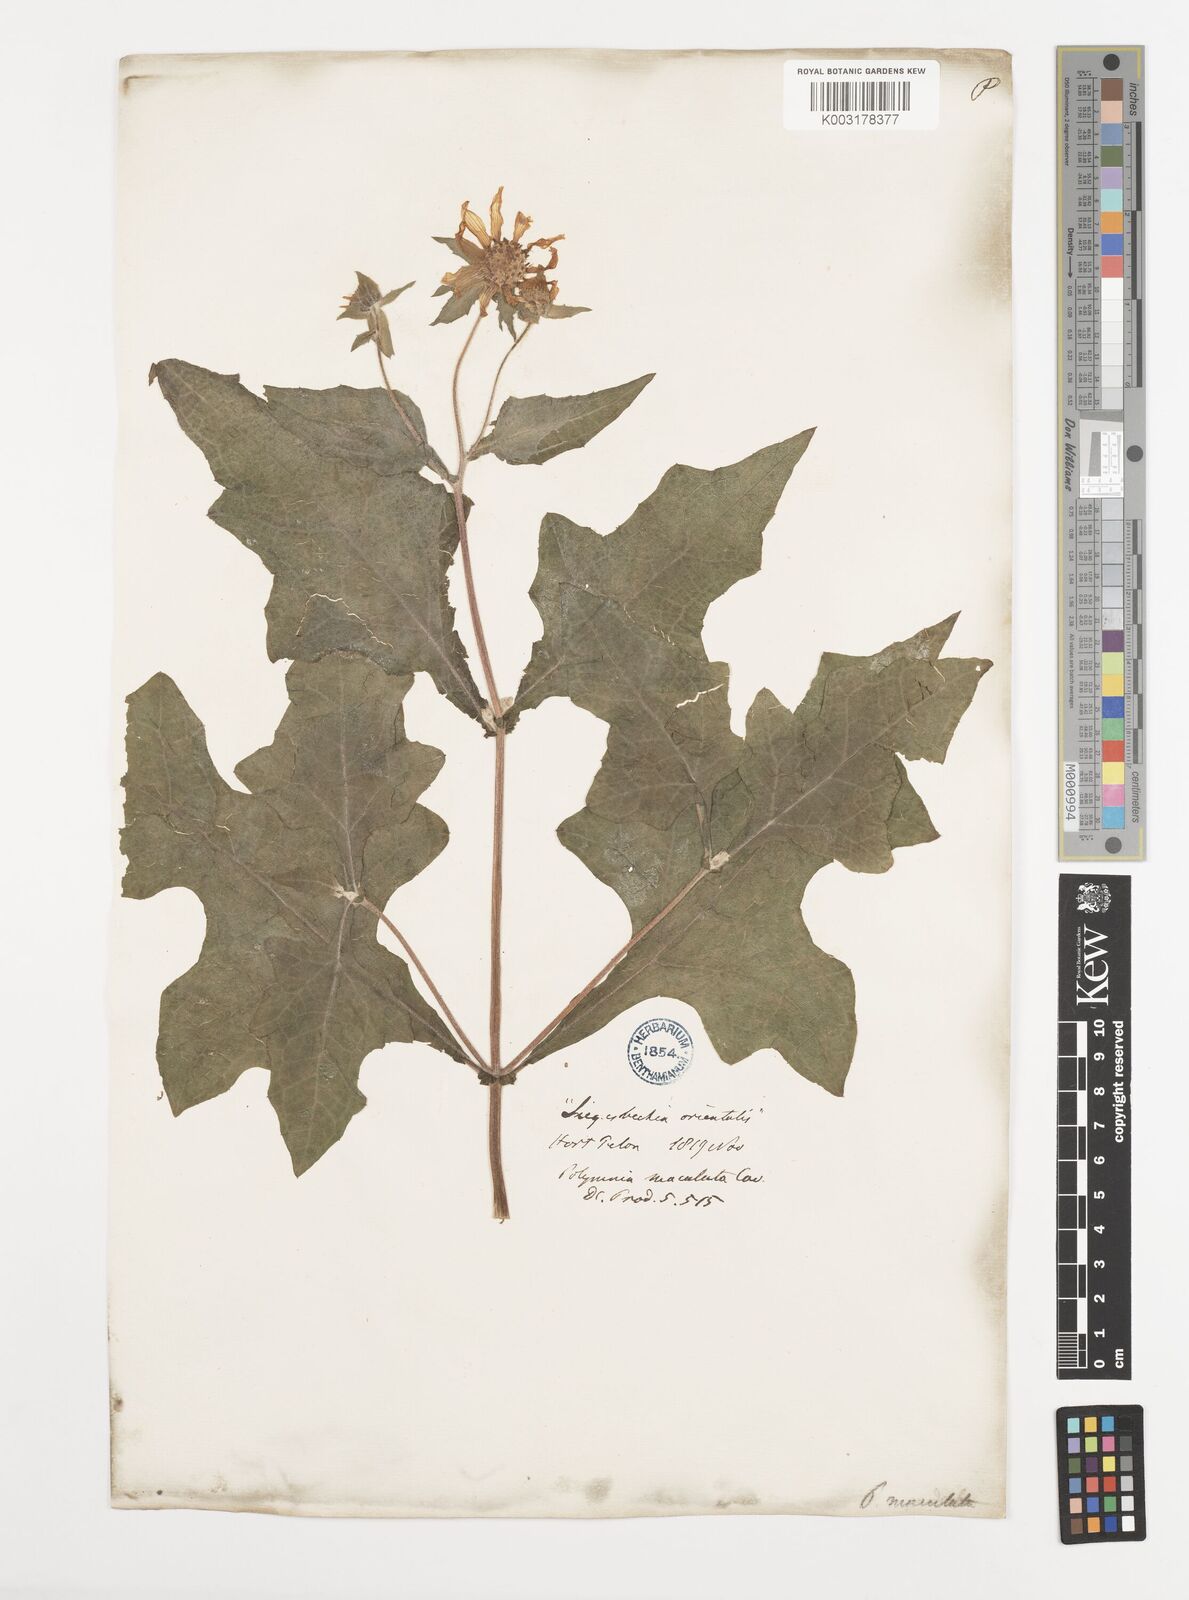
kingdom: Plantae
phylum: Tracheophyta
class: Magnoliopsida
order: Asterales
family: Asteraceae
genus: Smallanthus
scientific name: Smallanthus maculatus
